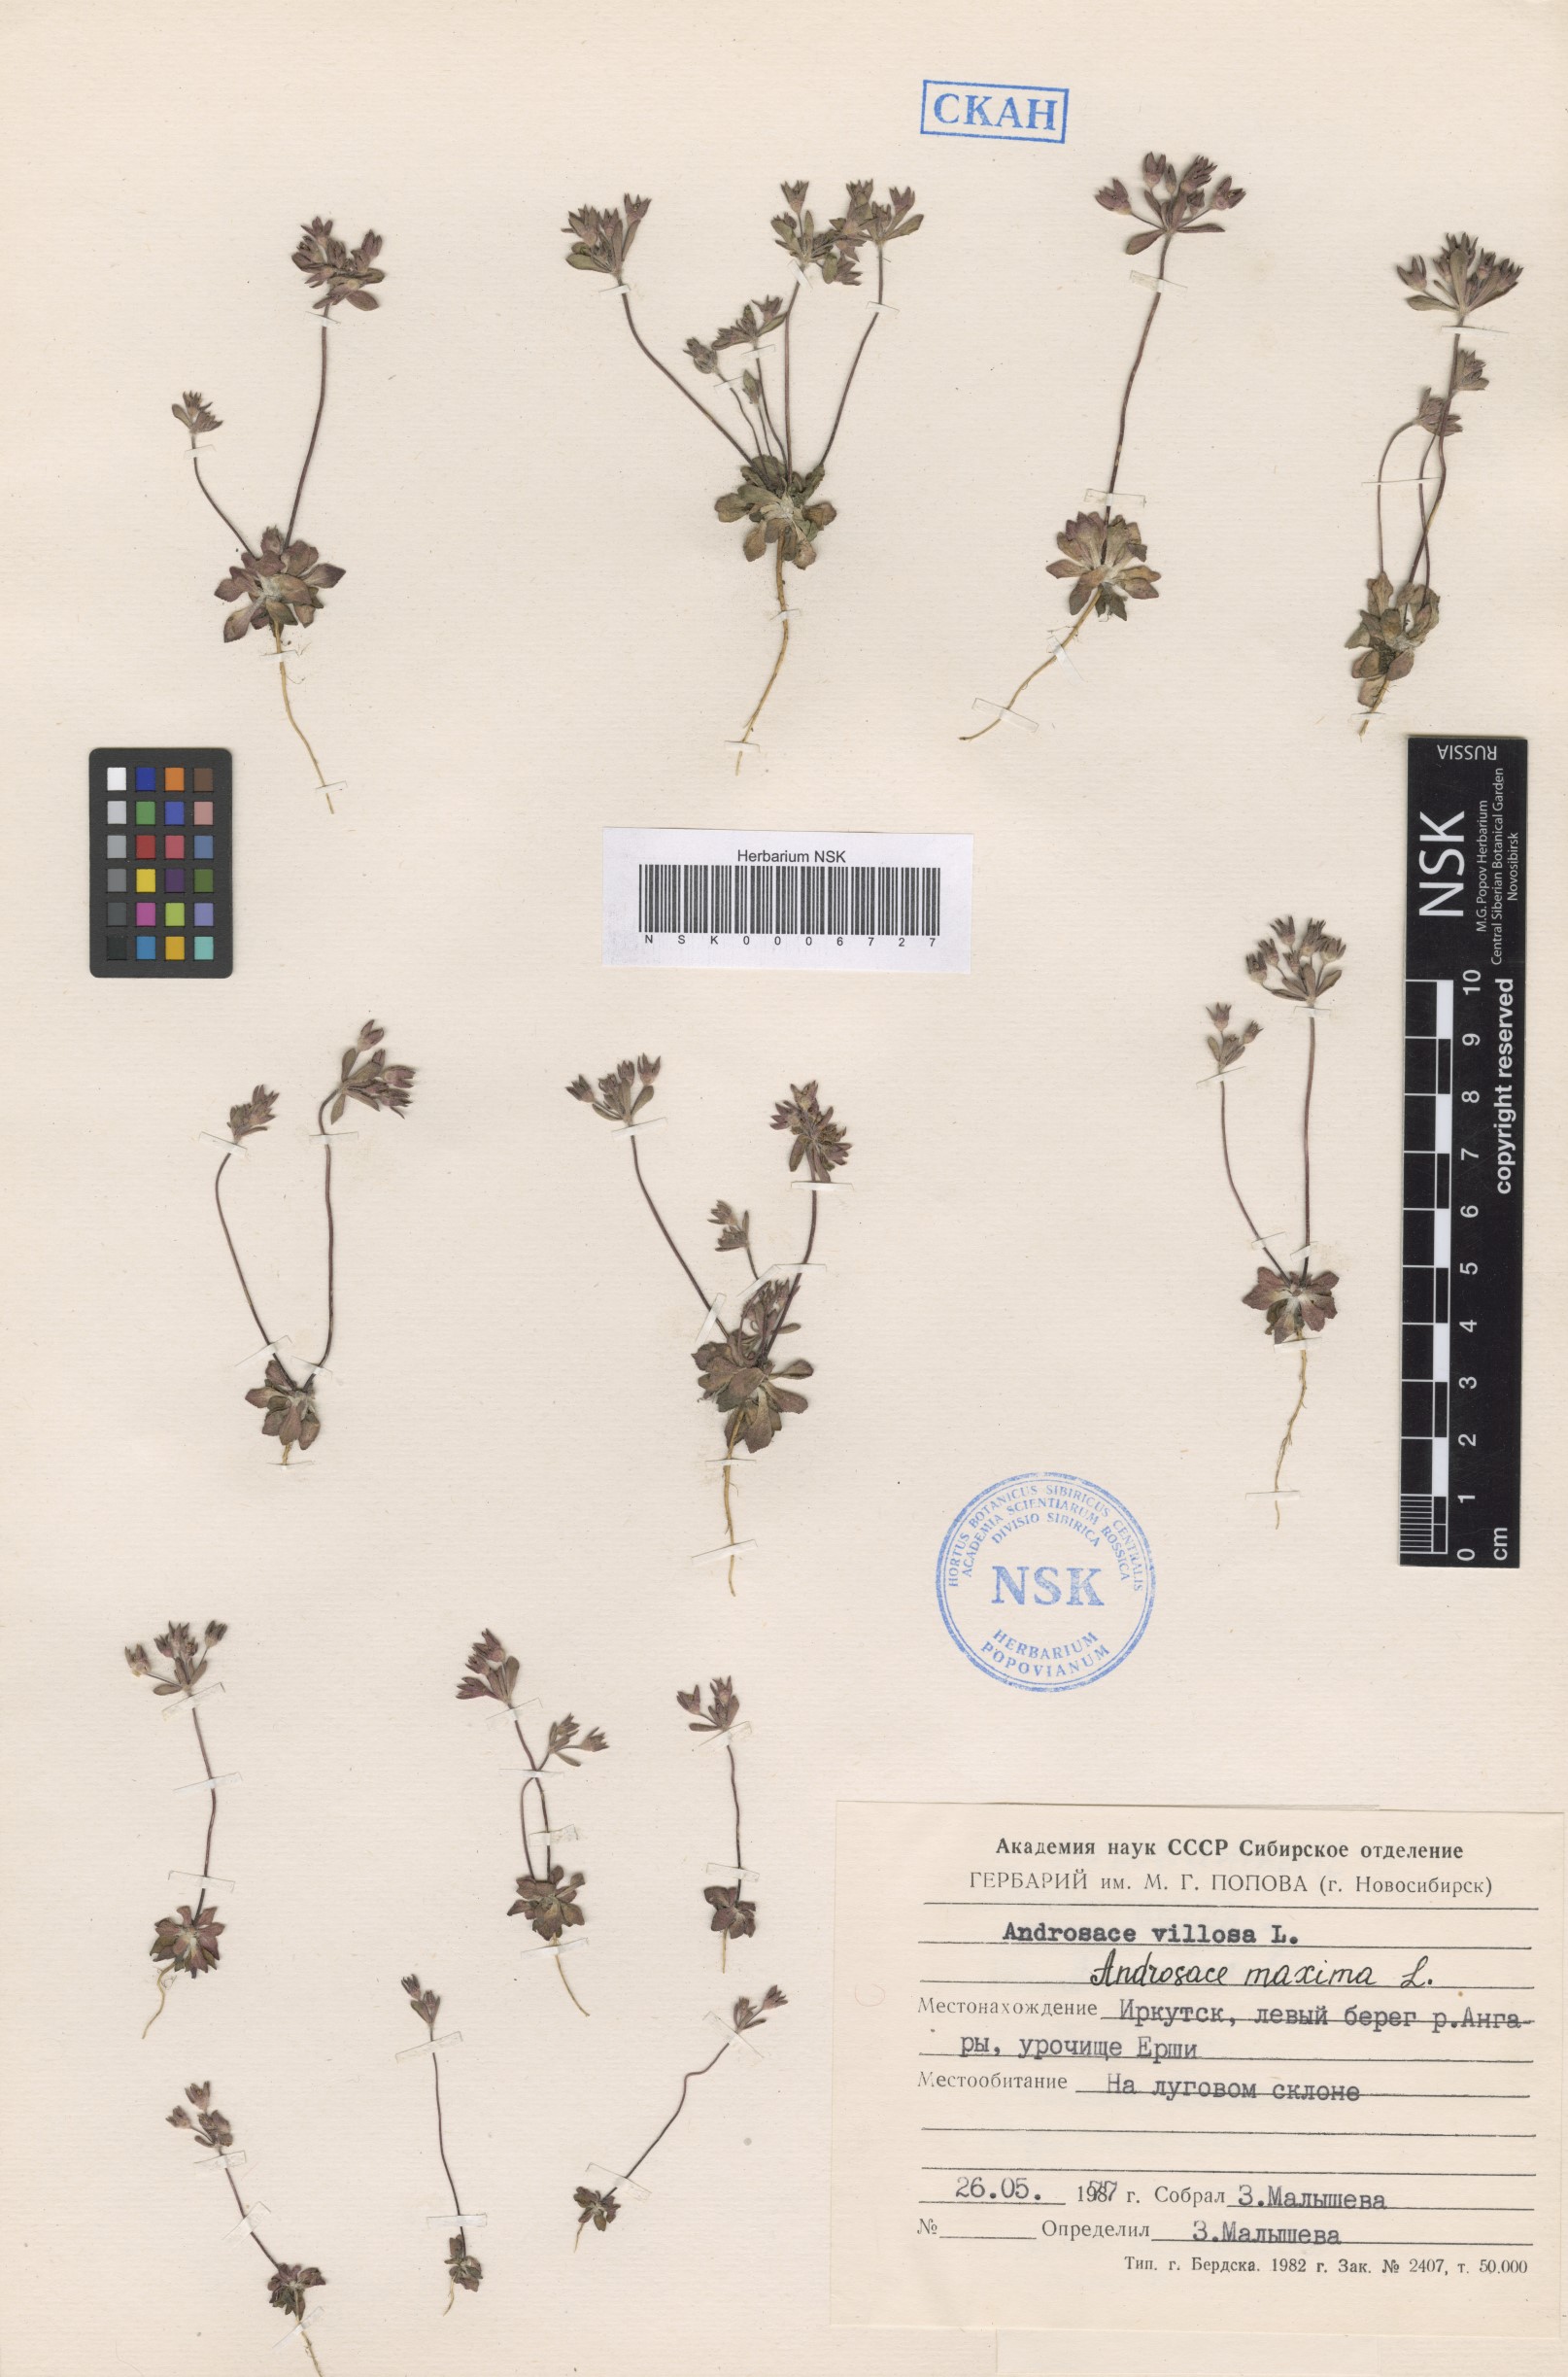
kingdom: Plantae
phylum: Tracheophyta
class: Magnoliopsida
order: Ericales
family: Primulaceae
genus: Androsace
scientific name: Androsace maxima
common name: Annual androsace
